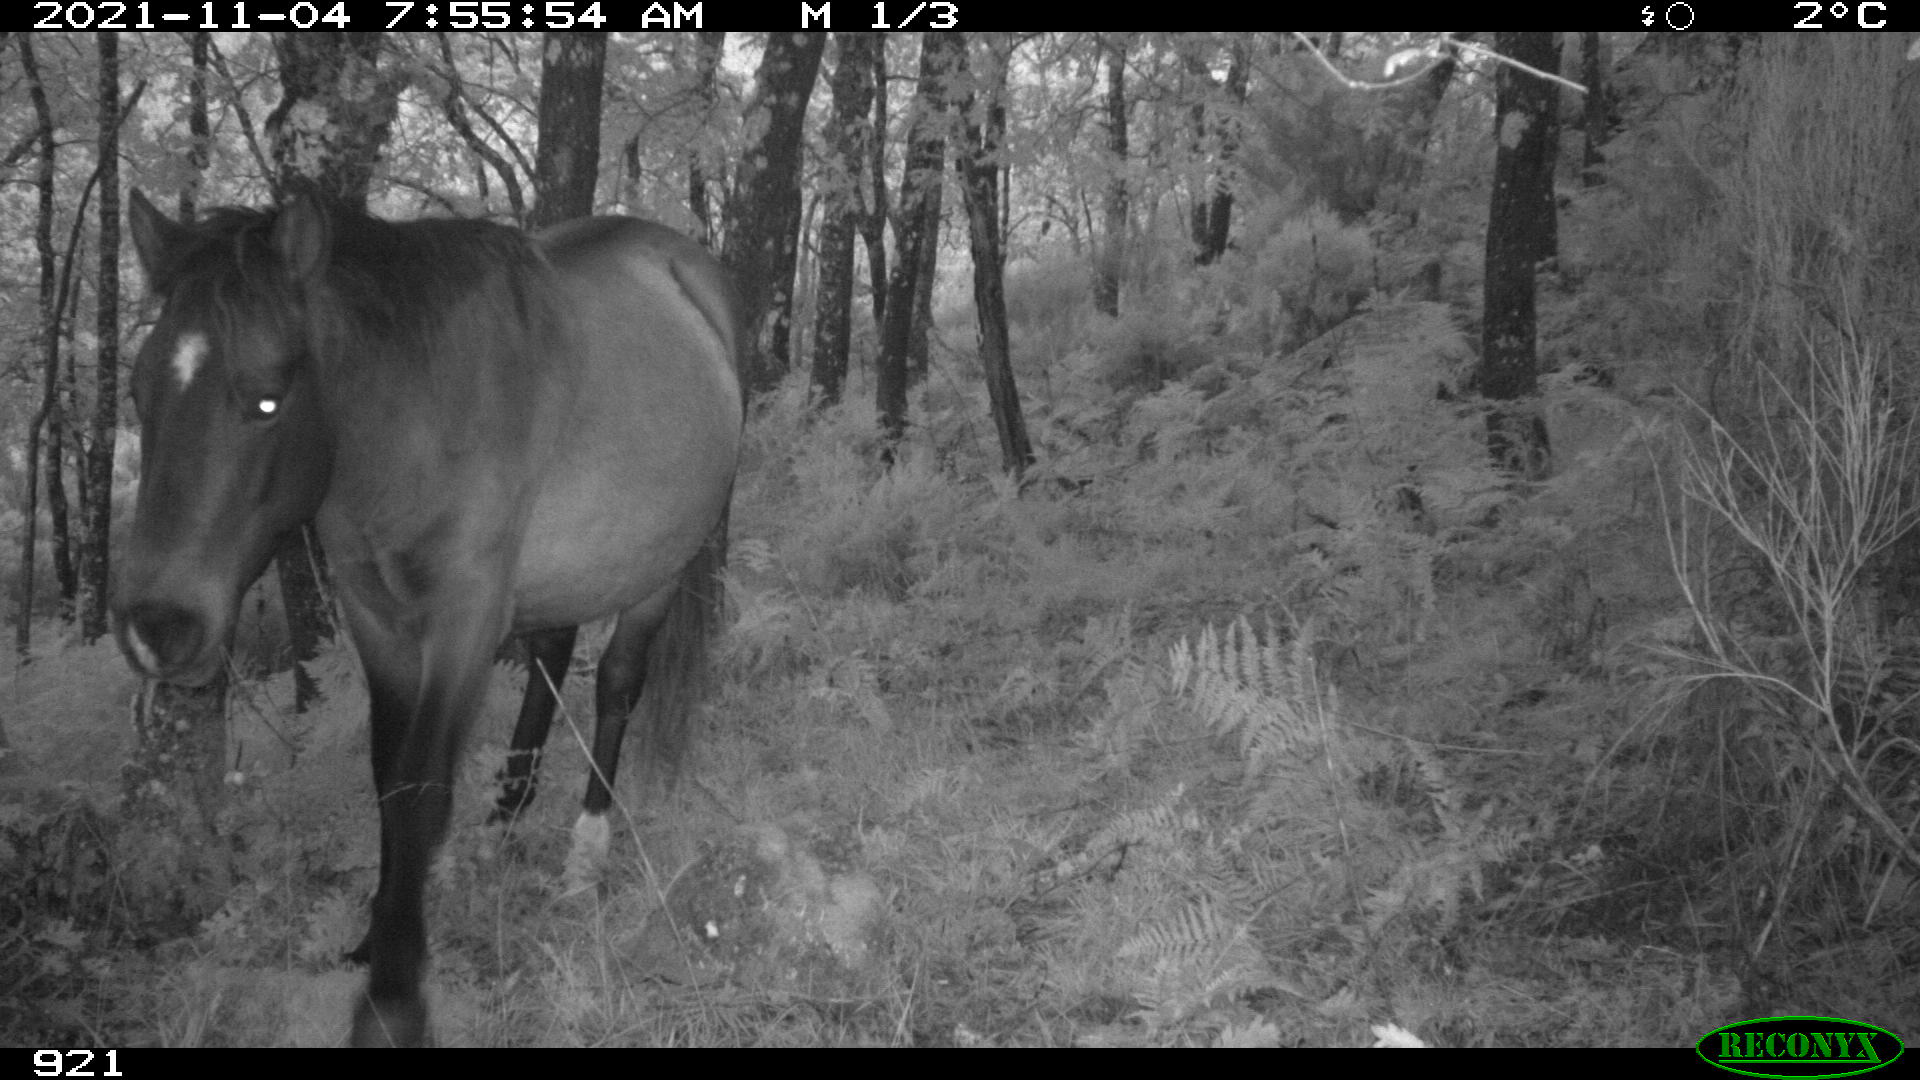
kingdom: Animalia
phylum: Chordata
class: Mammalia
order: Perissodactyla
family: Equidae
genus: Equus
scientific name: Equus caballus
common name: Horse
